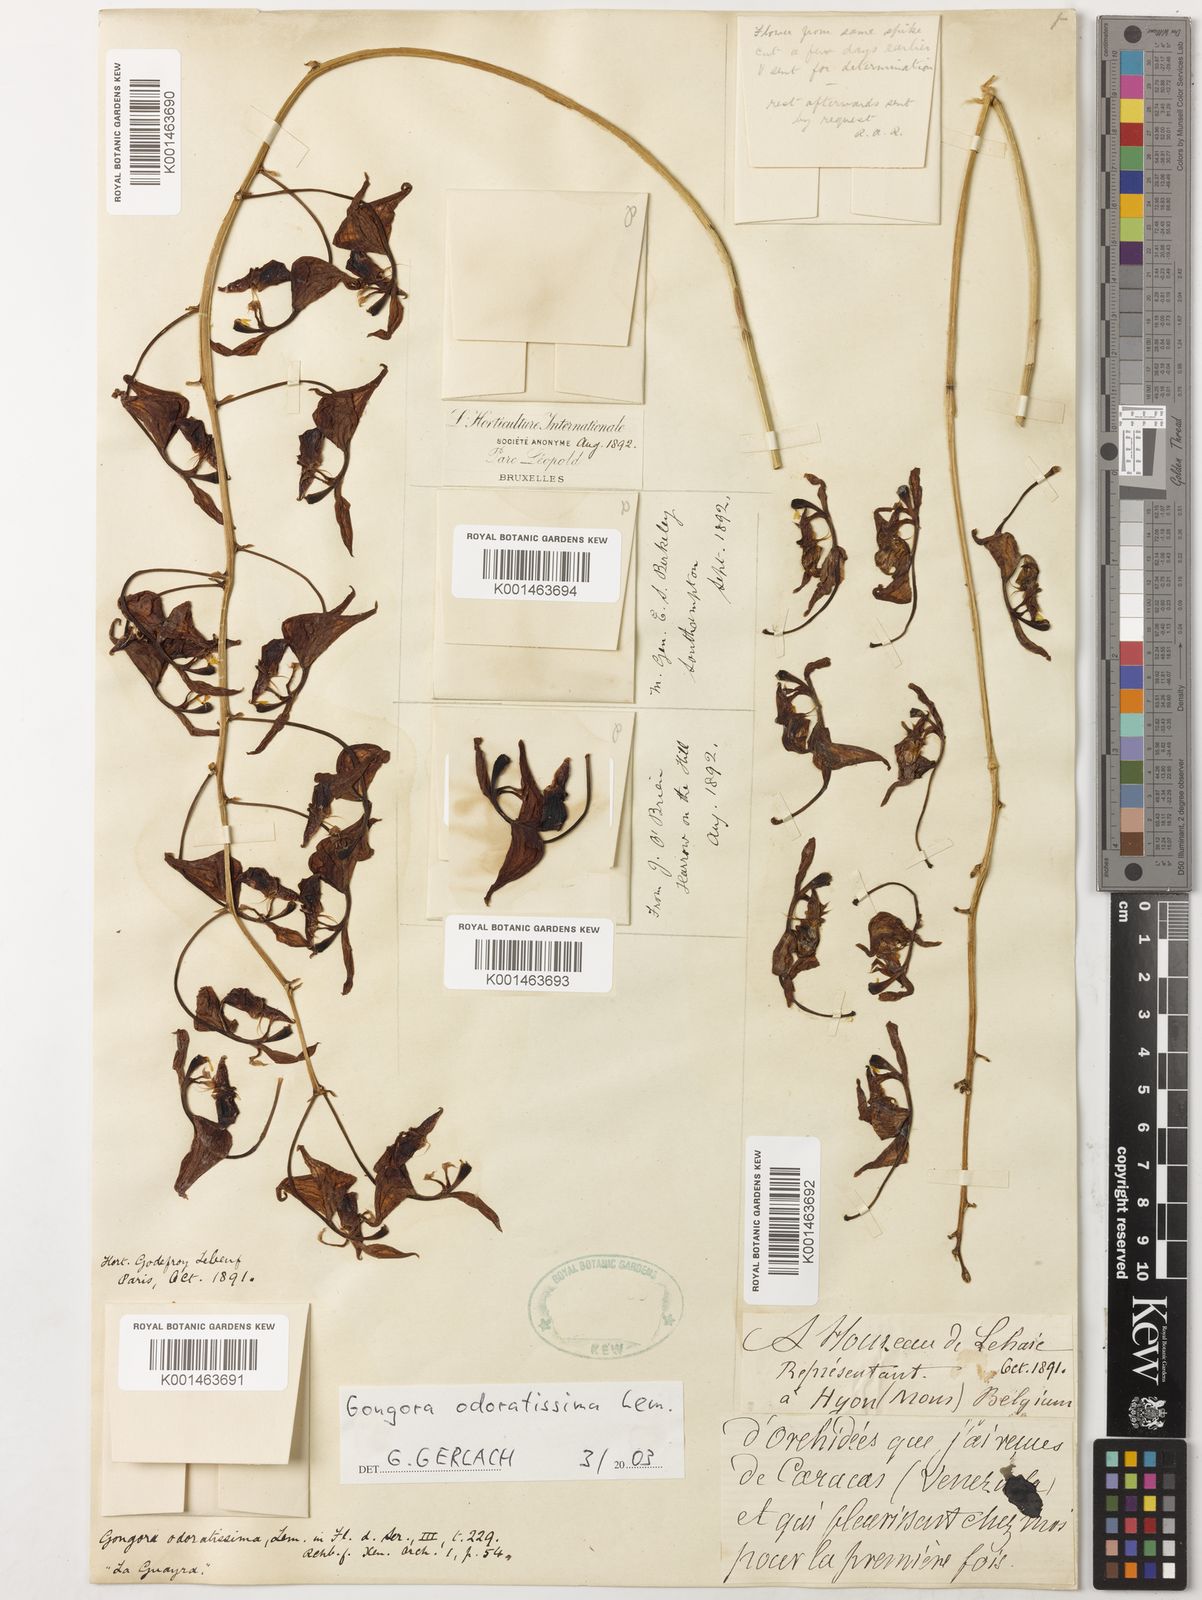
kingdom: Plantae
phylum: Tracheophyta
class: Liliopsida
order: Asparagales
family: Orchidaceae
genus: Gongora
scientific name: Gongora odoratissima
